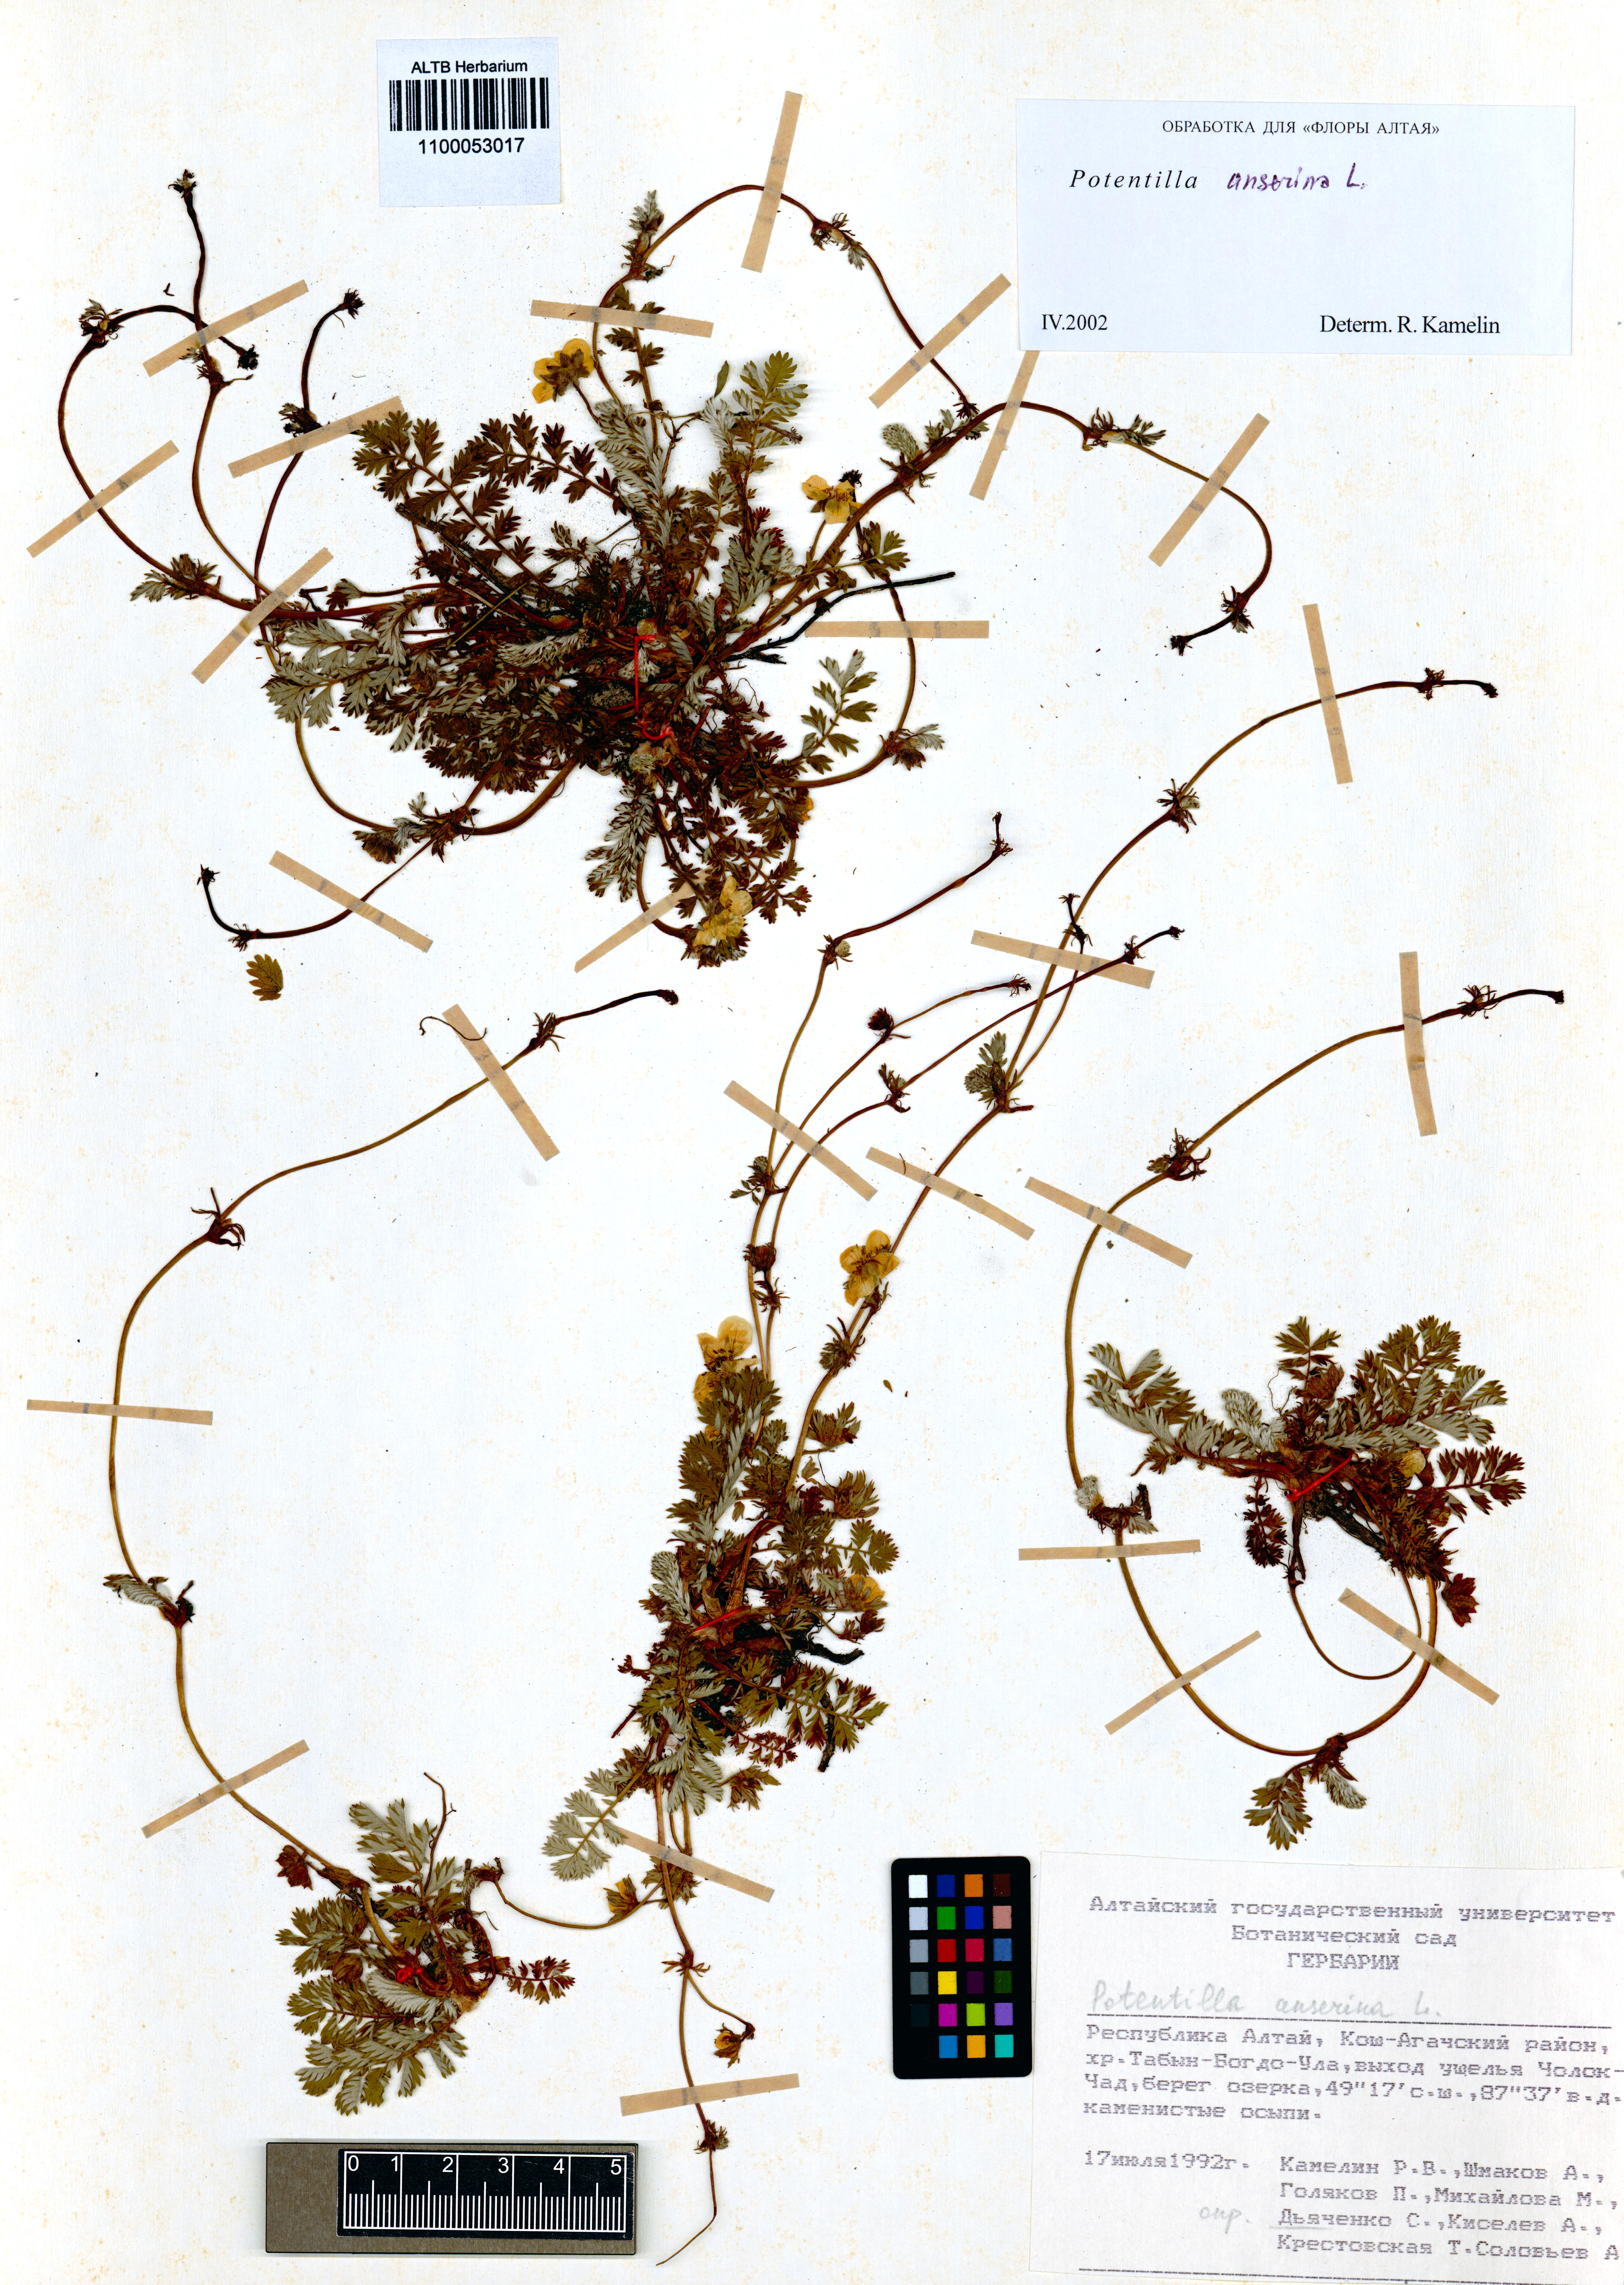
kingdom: Plantae
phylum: Tracheophyta
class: Magnoliopsida
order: Rosales
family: Rosaceae
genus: Argentina
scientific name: Argentina anserina
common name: Common silverweed
